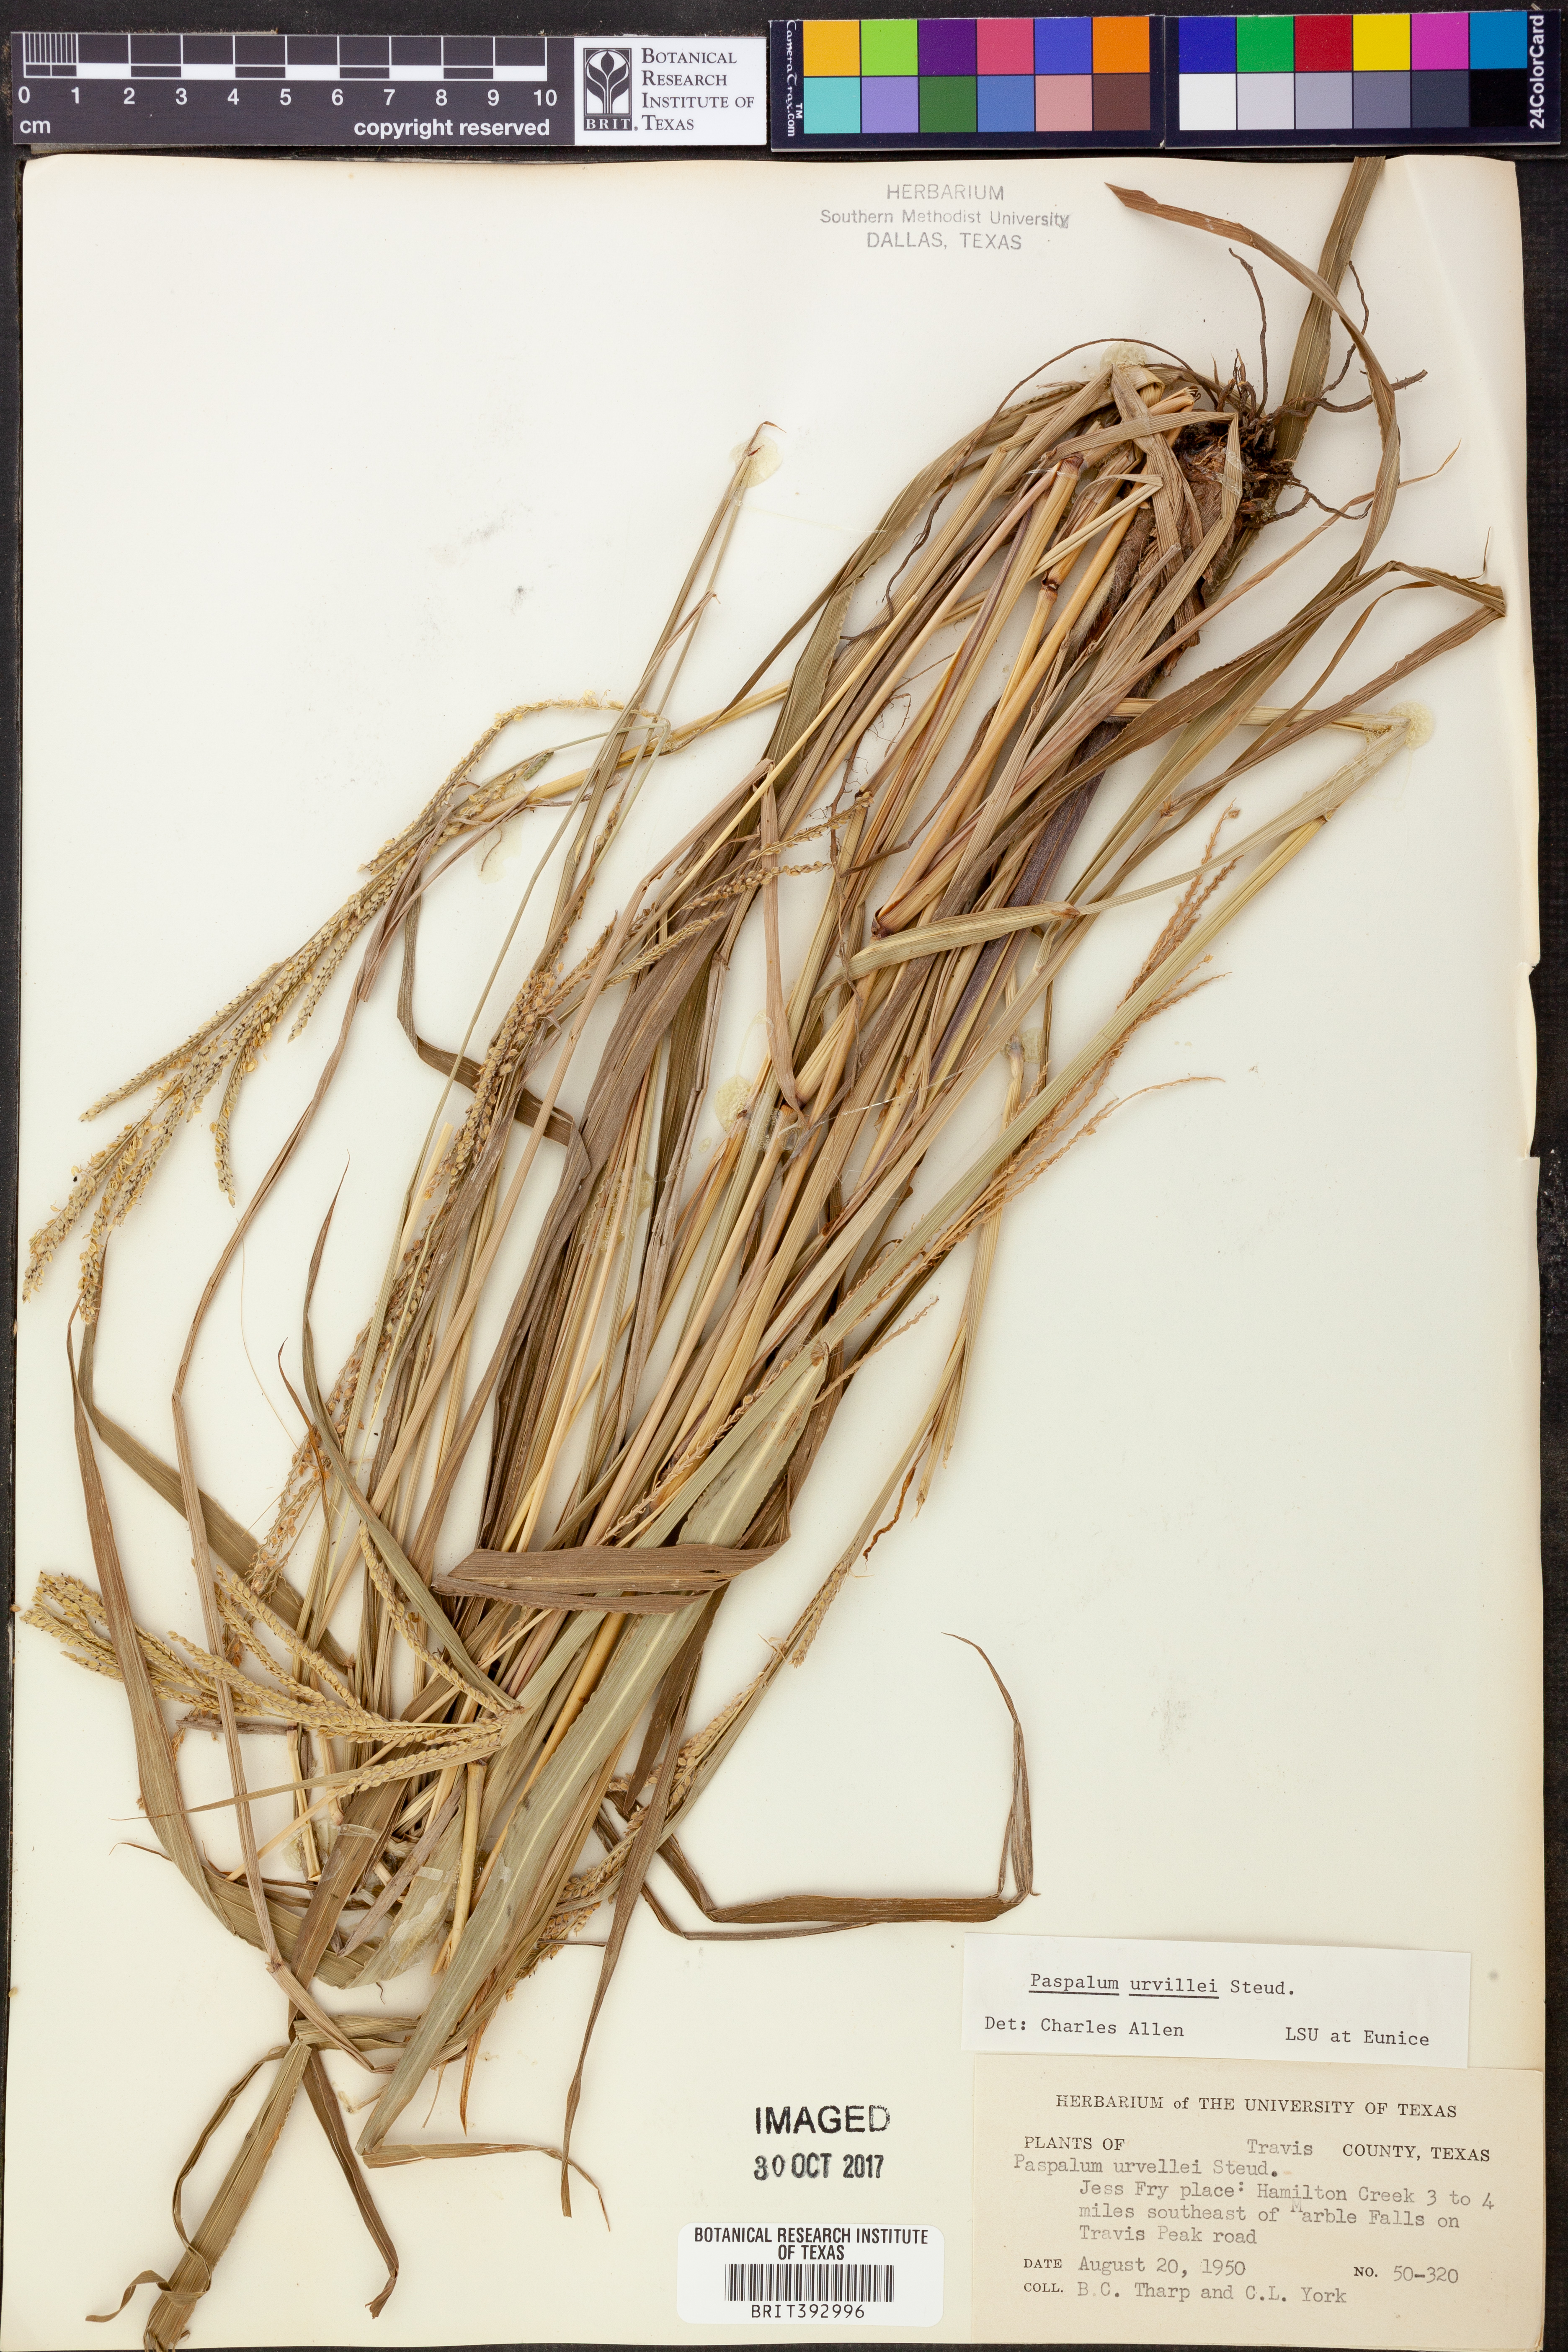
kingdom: Plantae
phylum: Tracheophyta
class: Liliopsida
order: Poales
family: Poaceae
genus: Paspalum
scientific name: Paspalum urvillei
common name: Vasey's grass
